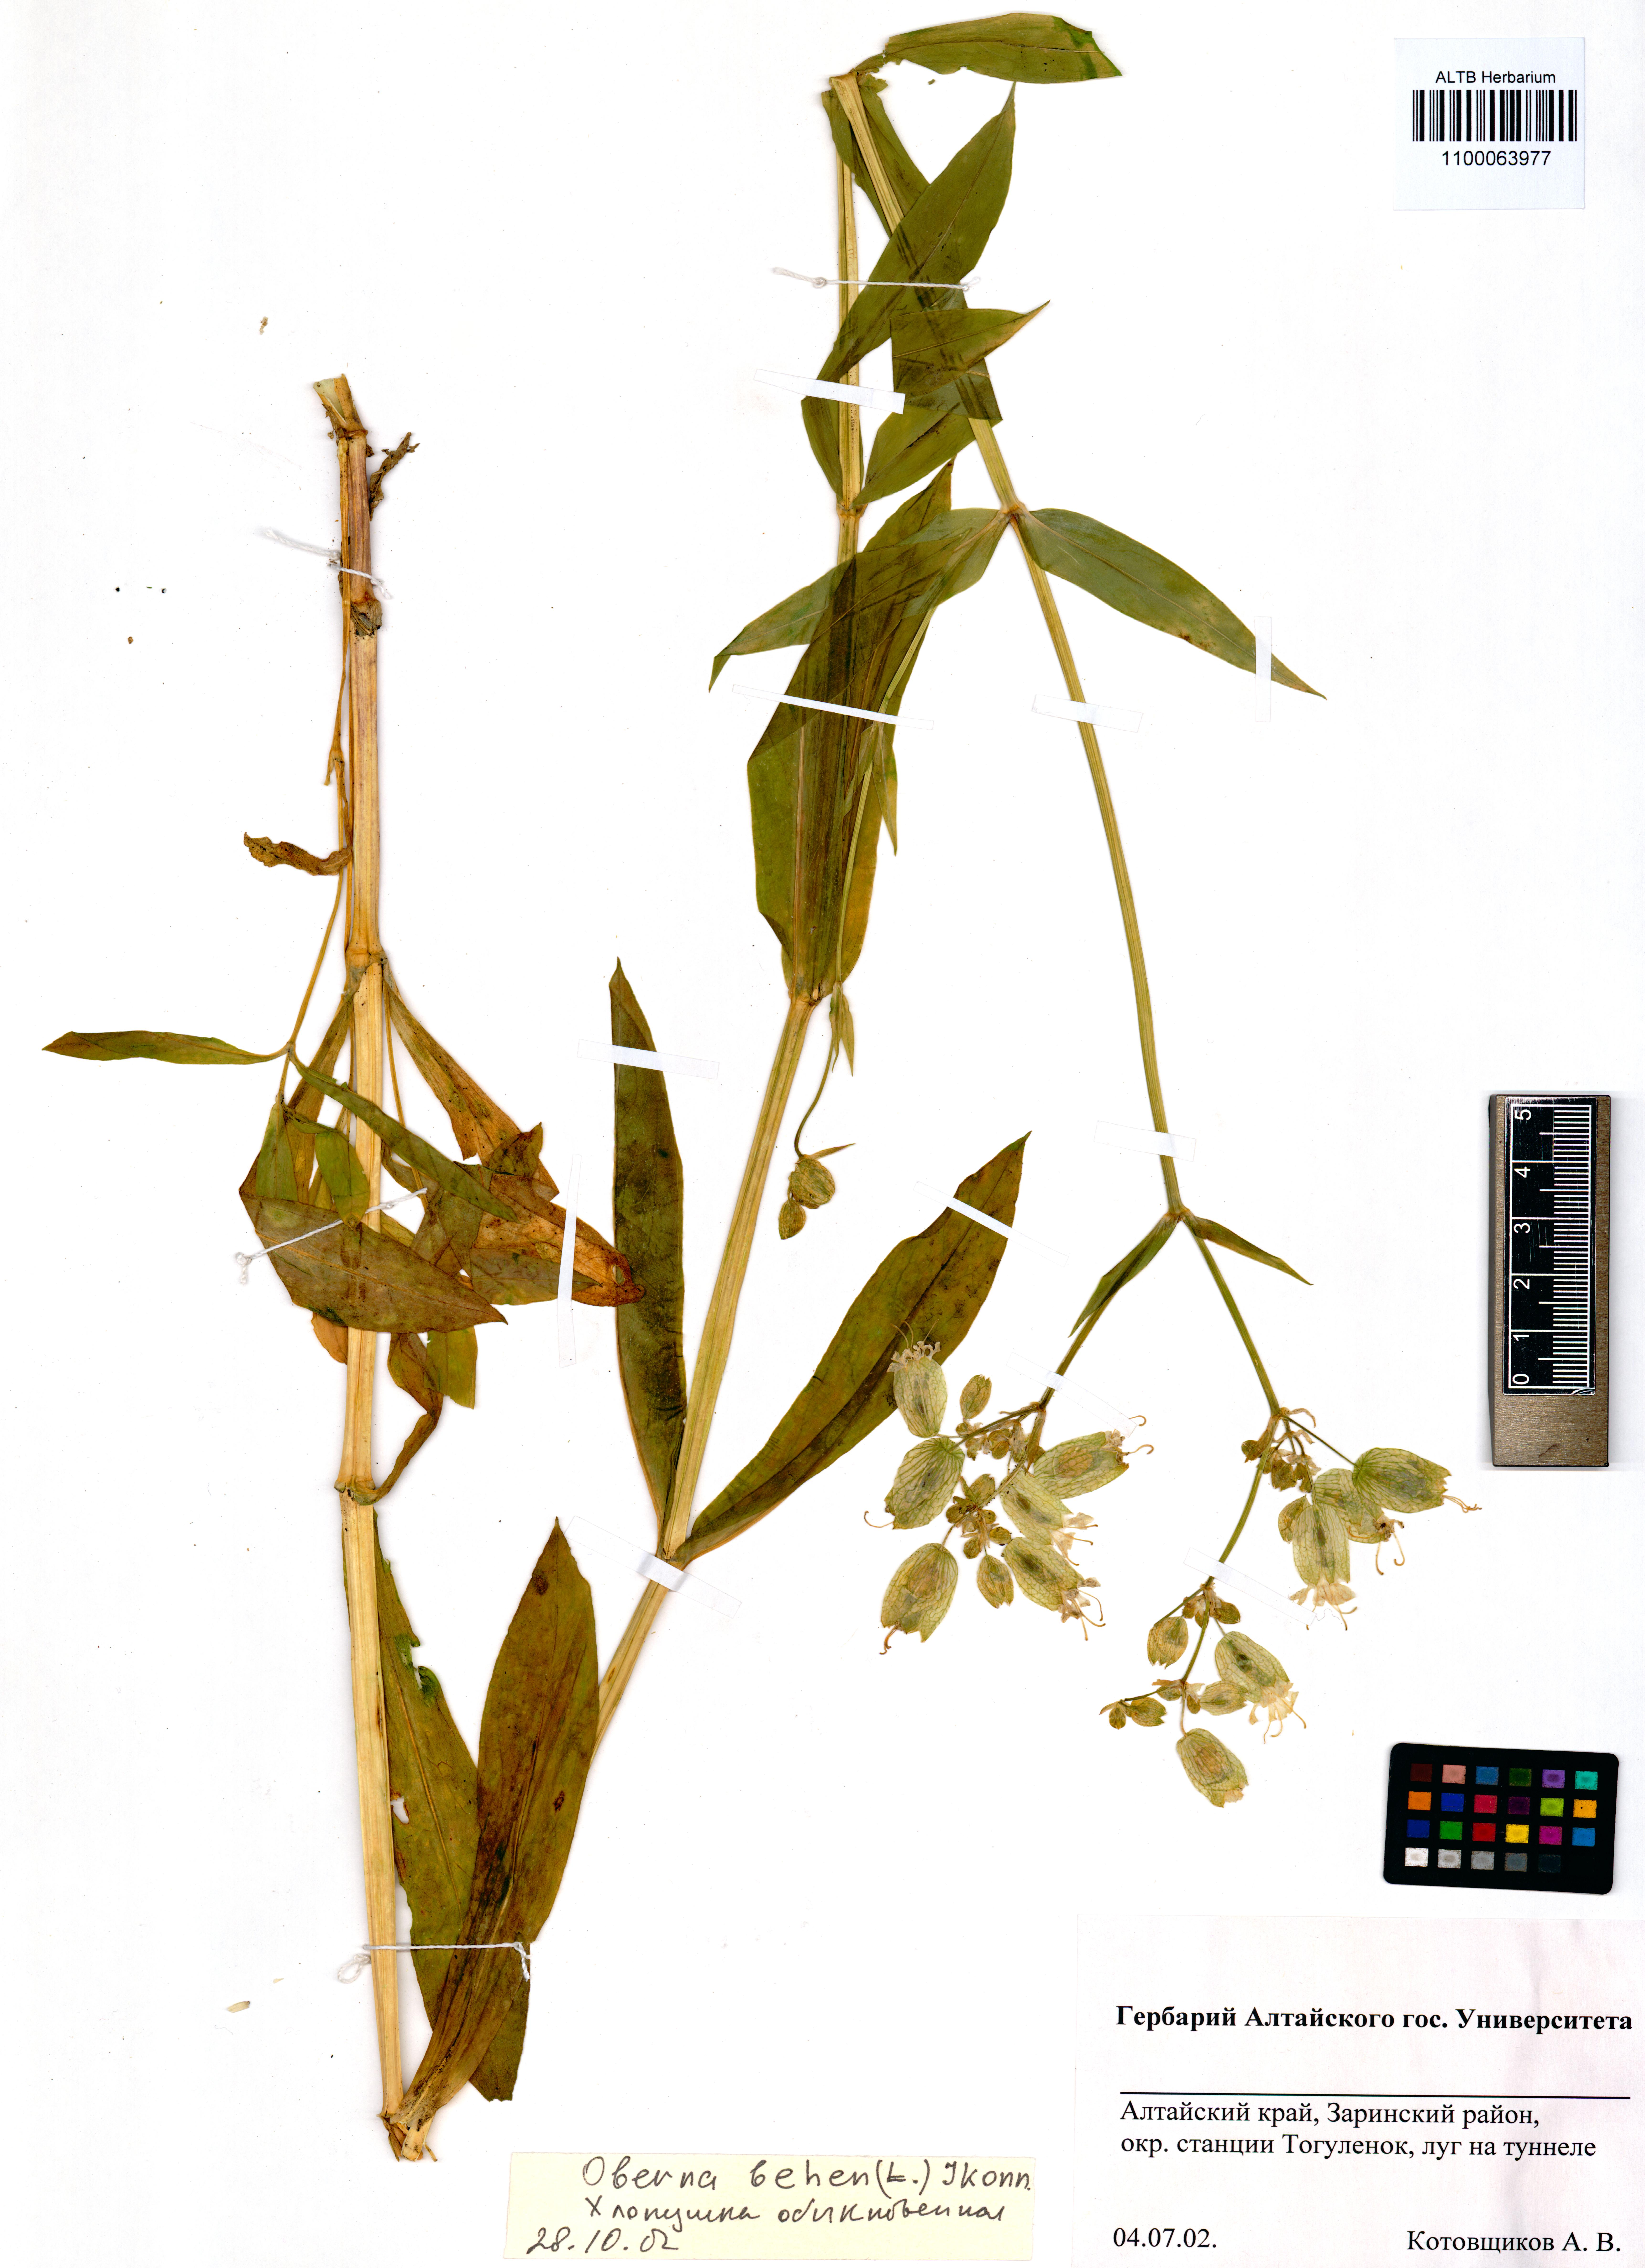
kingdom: Plantae
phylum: Tracheophyta
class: Magnoliopsida
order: Caryophyllales
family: Caryophyllaceae
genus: Silene
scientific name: Silene behen
